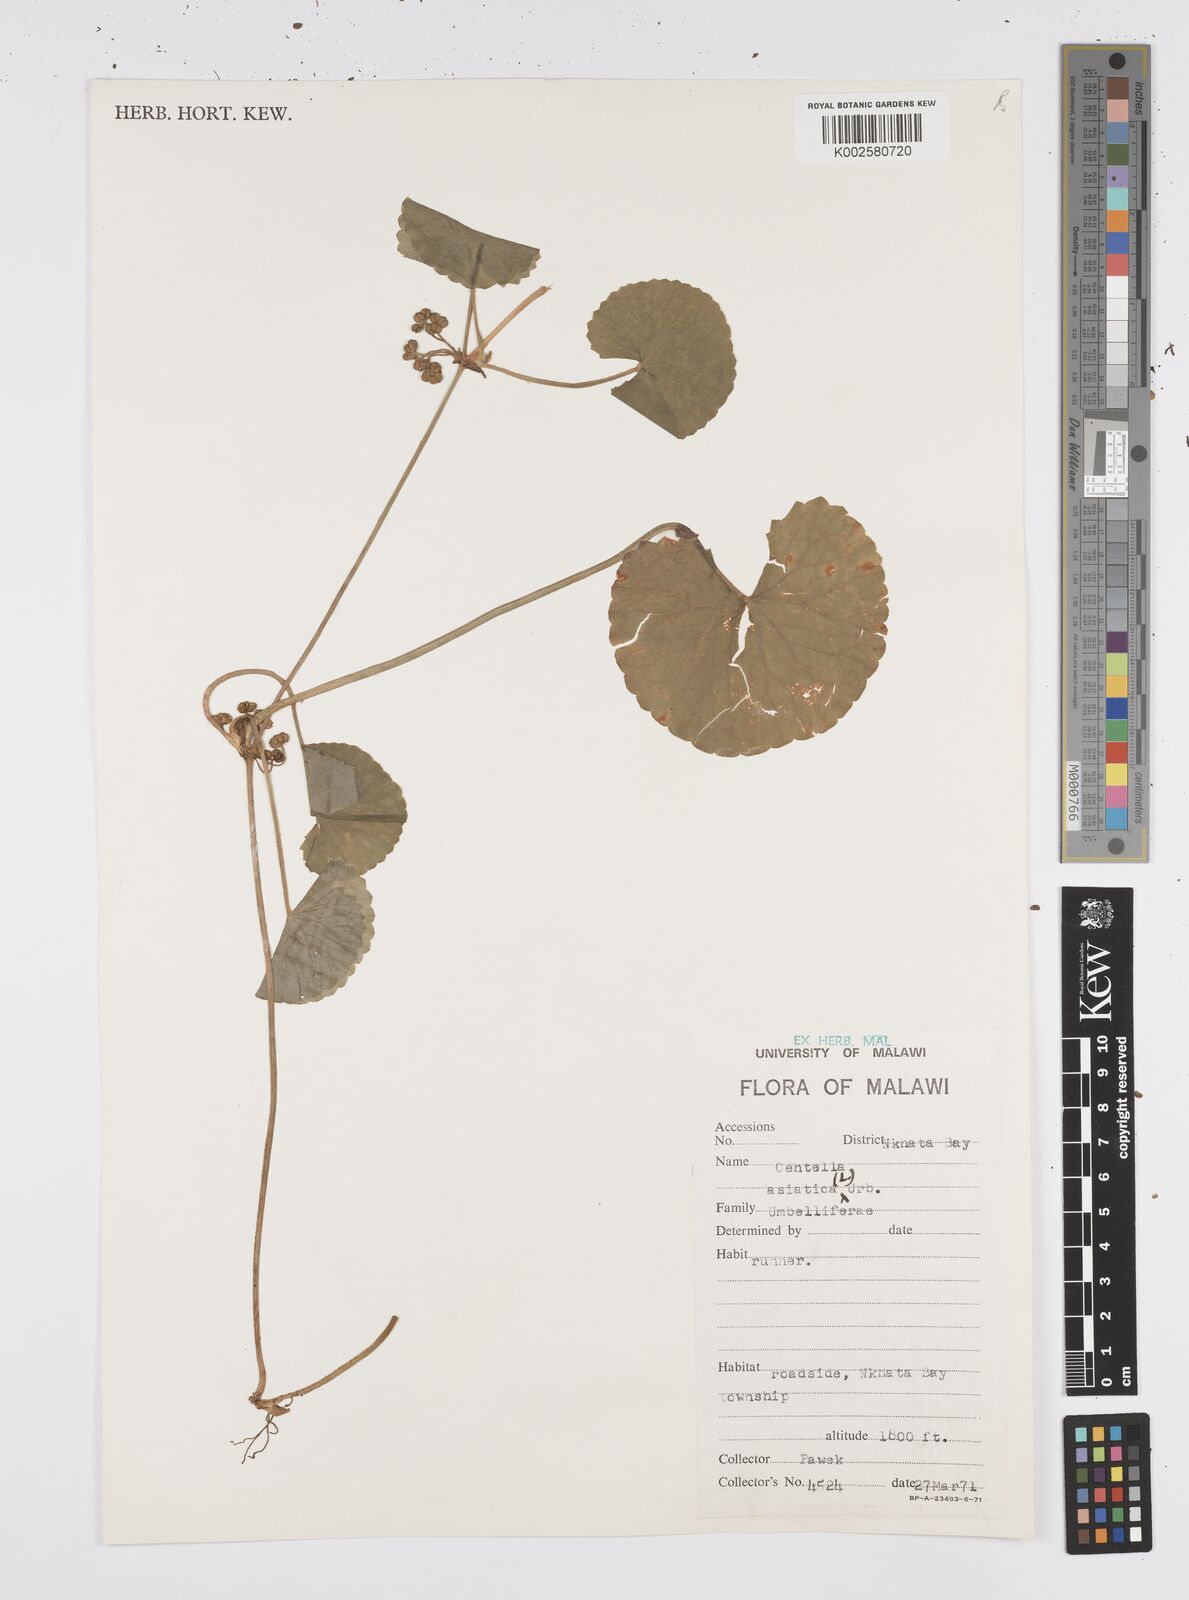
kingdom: Plantae
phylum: Tracheophyta
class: Magnoliopsida
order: Apiales
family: Apiaceae
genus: Centella
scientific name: Centella asiatica
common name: Spadeleaf
